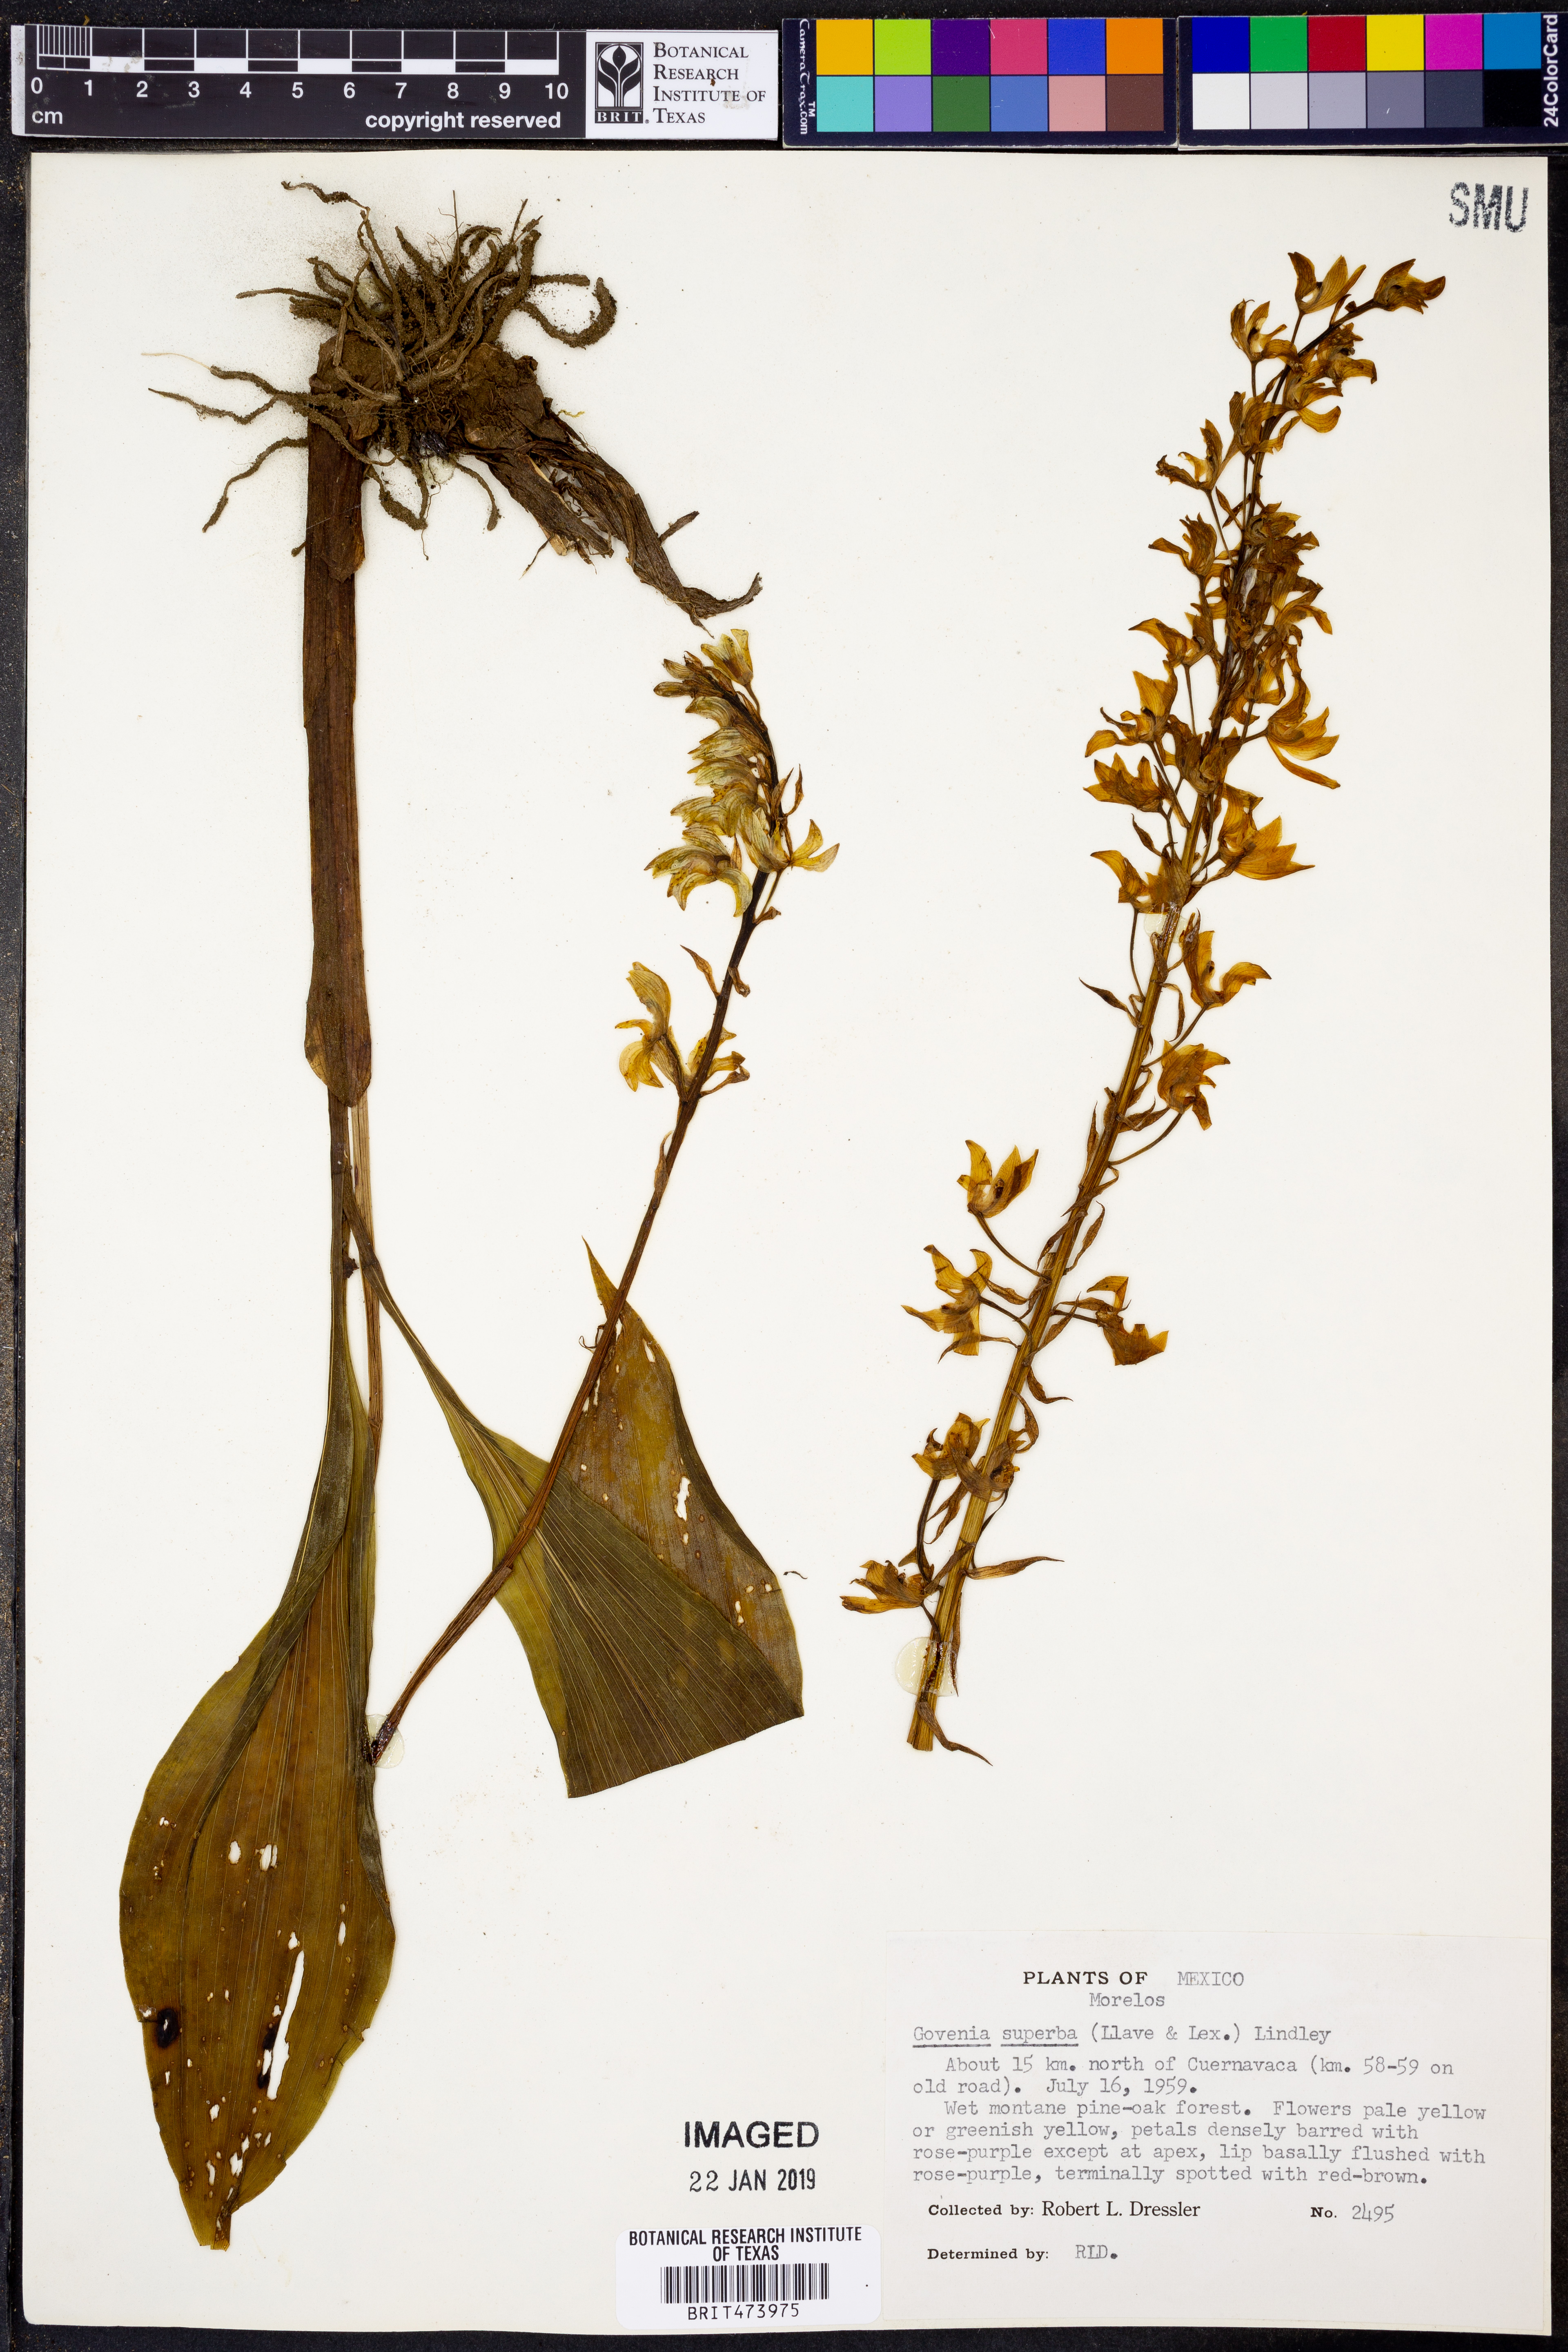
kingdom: Plantae
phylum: Tracheophyta
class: Liliopsida
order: Asparagales
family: Orchidaceae
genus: Govenia
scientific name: Govenia superba
